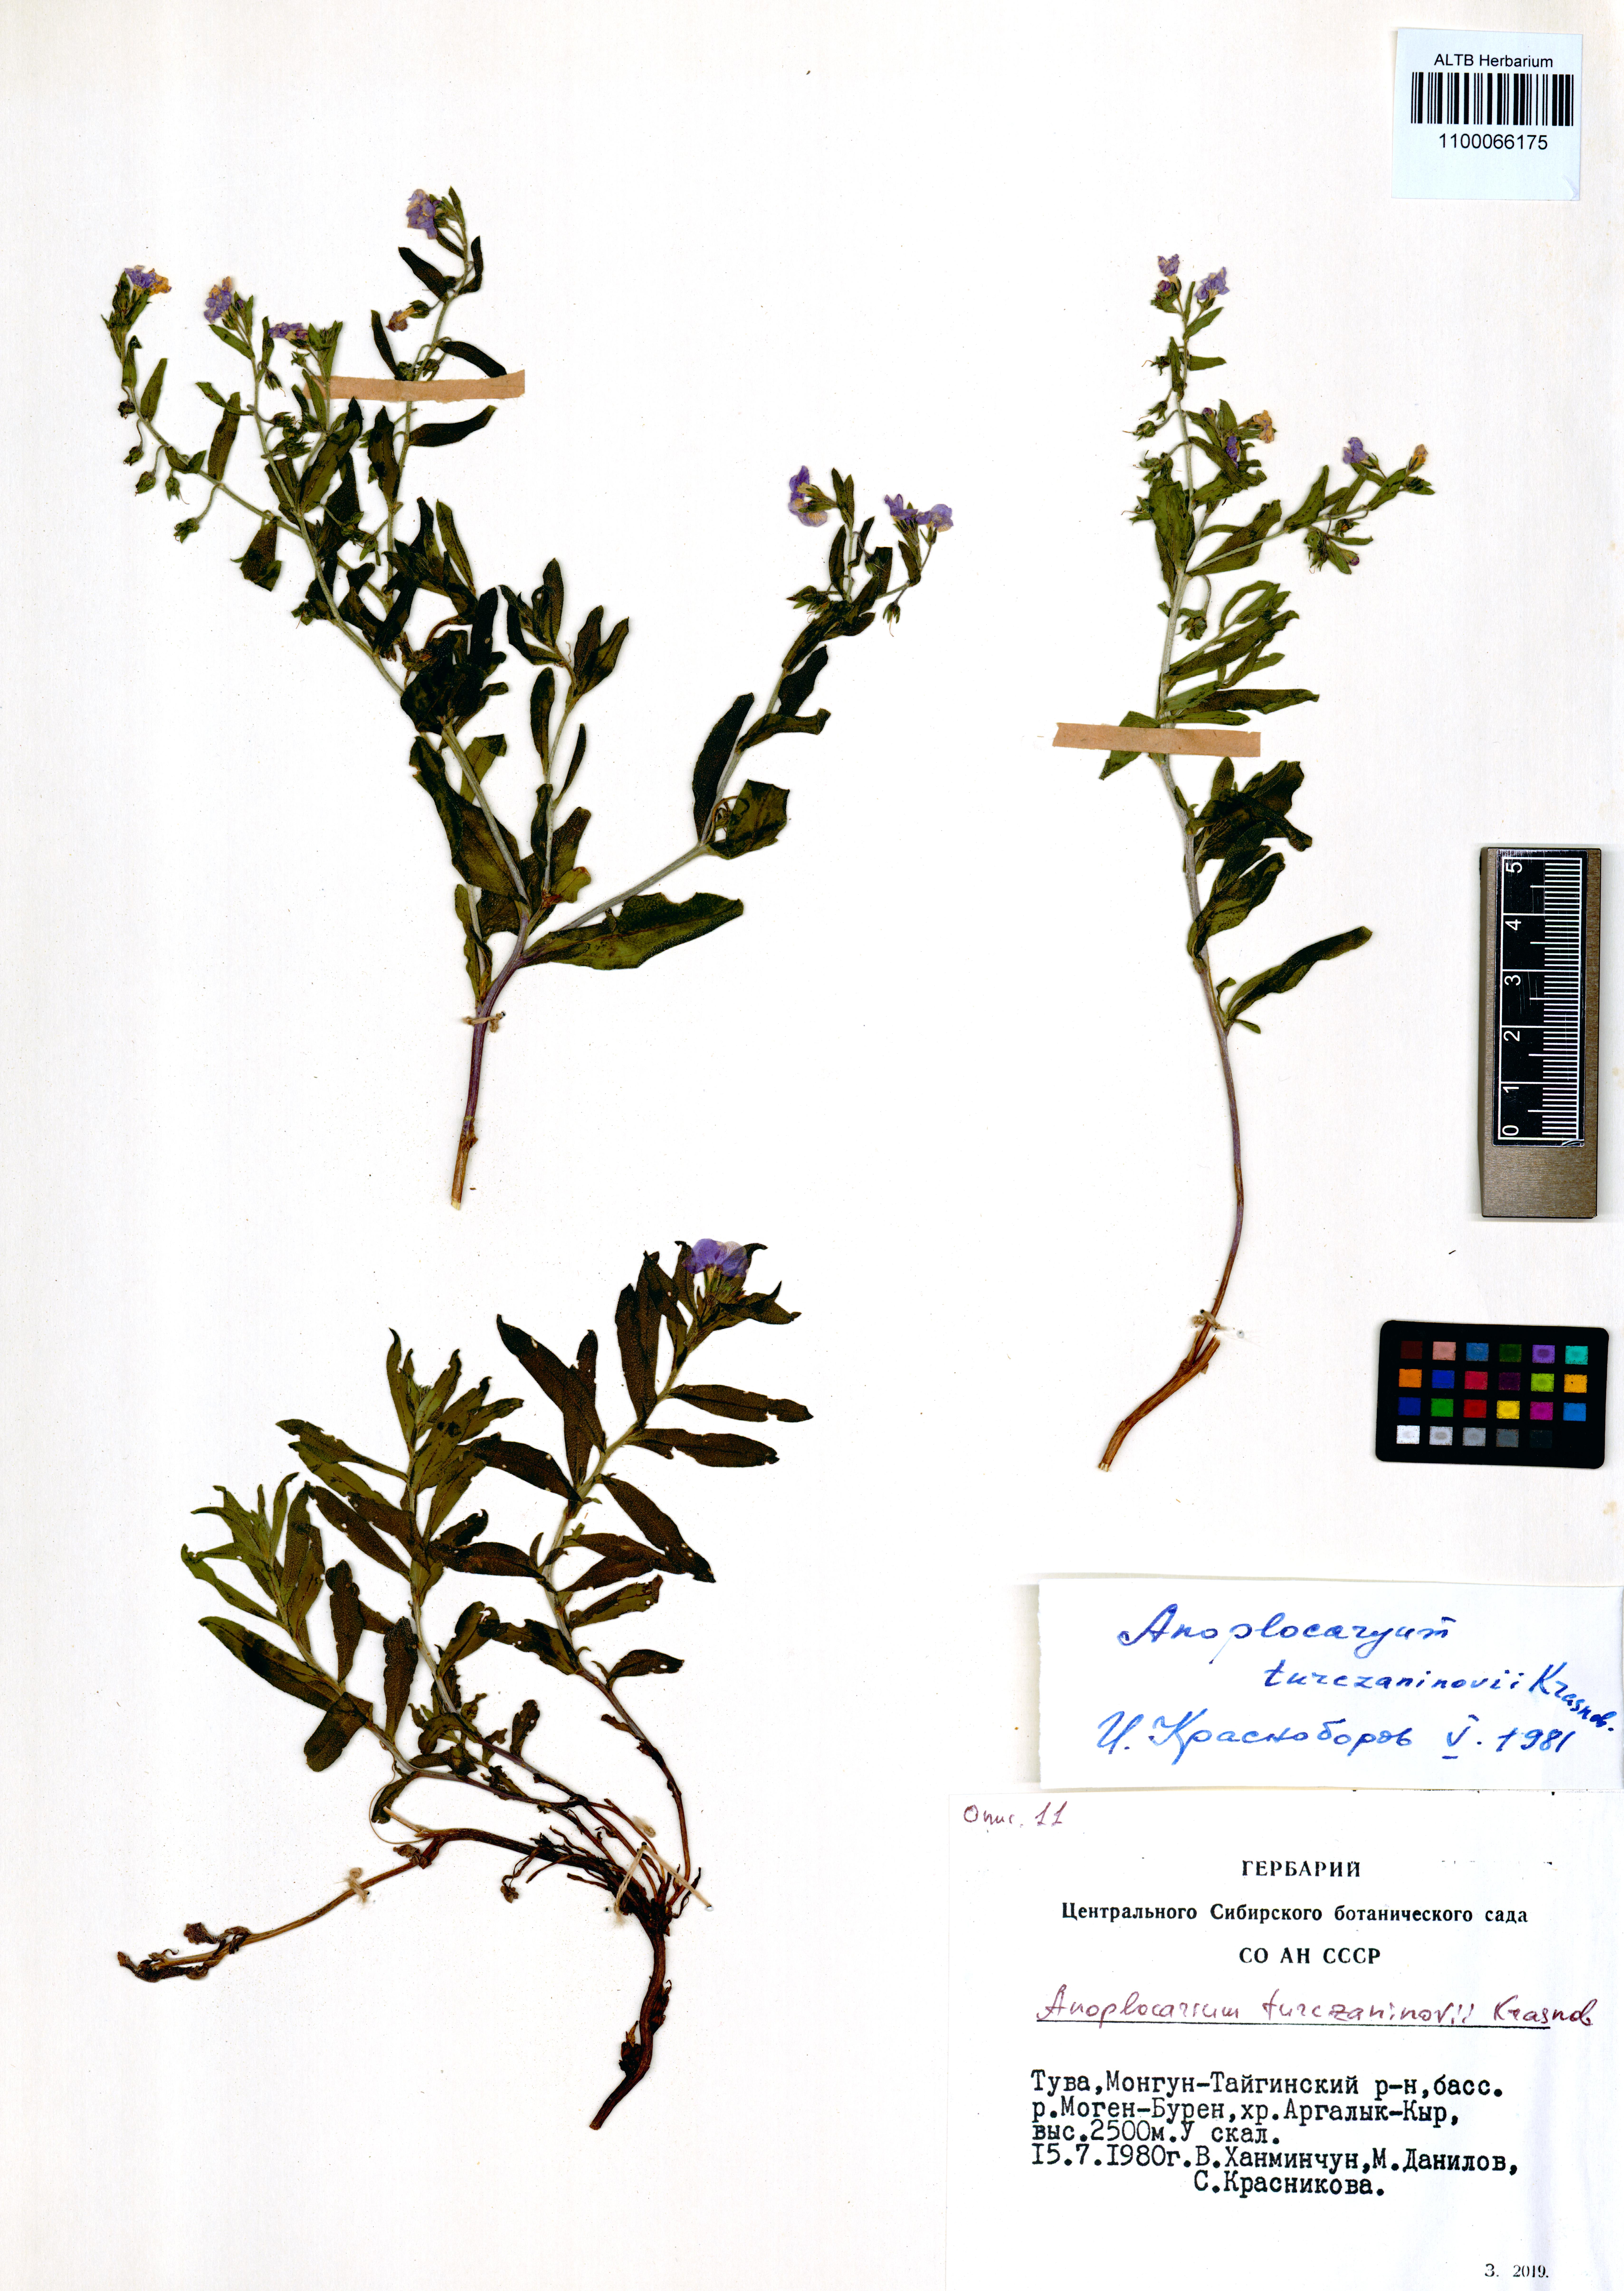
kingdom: Plantae
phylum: Tracheophyta
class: Magnoliopsida
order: Boraginales
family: Boraginaceae
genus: Anoplocaryum
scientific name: Anoplocaryum turczaninovii
